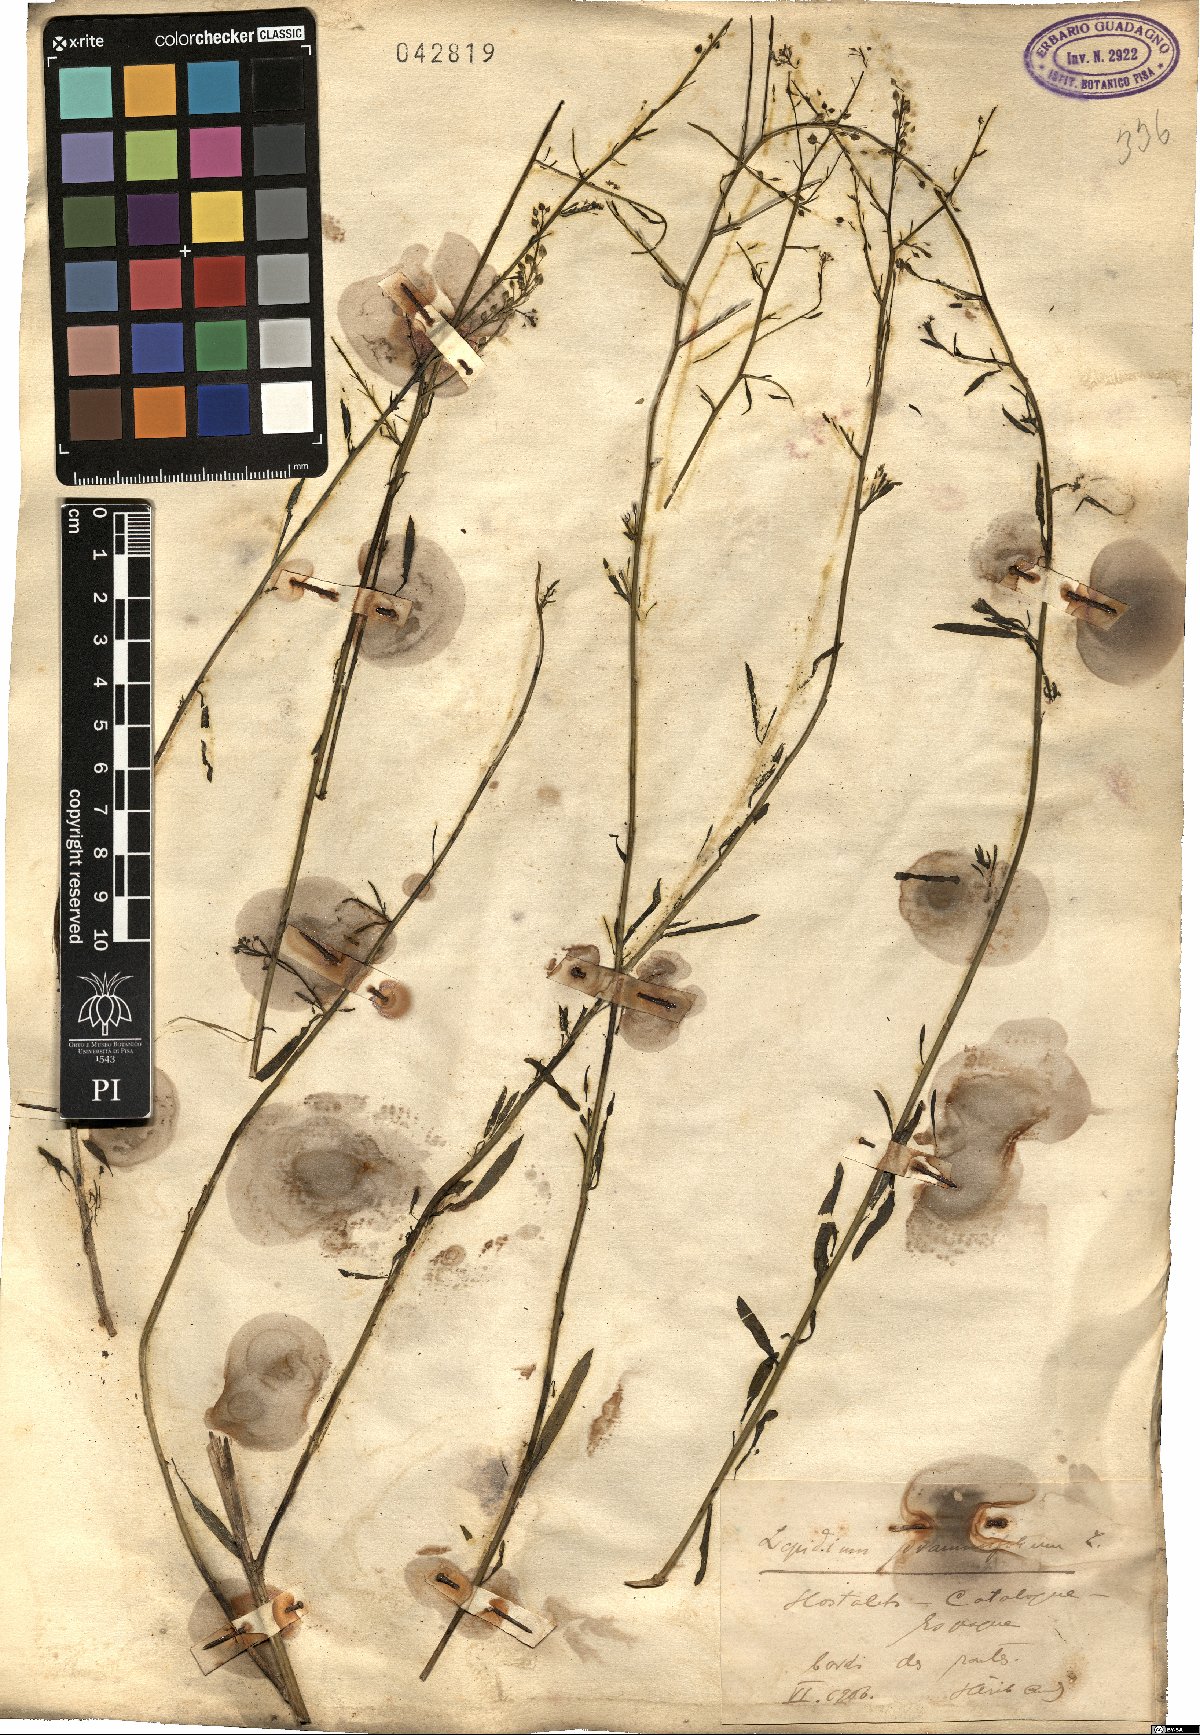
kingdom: Plantae
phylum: Tracheophyta
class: Magnoliopsida
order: Brassicales
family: Brassicaceae
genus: Lepidium
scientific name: Lepidium
